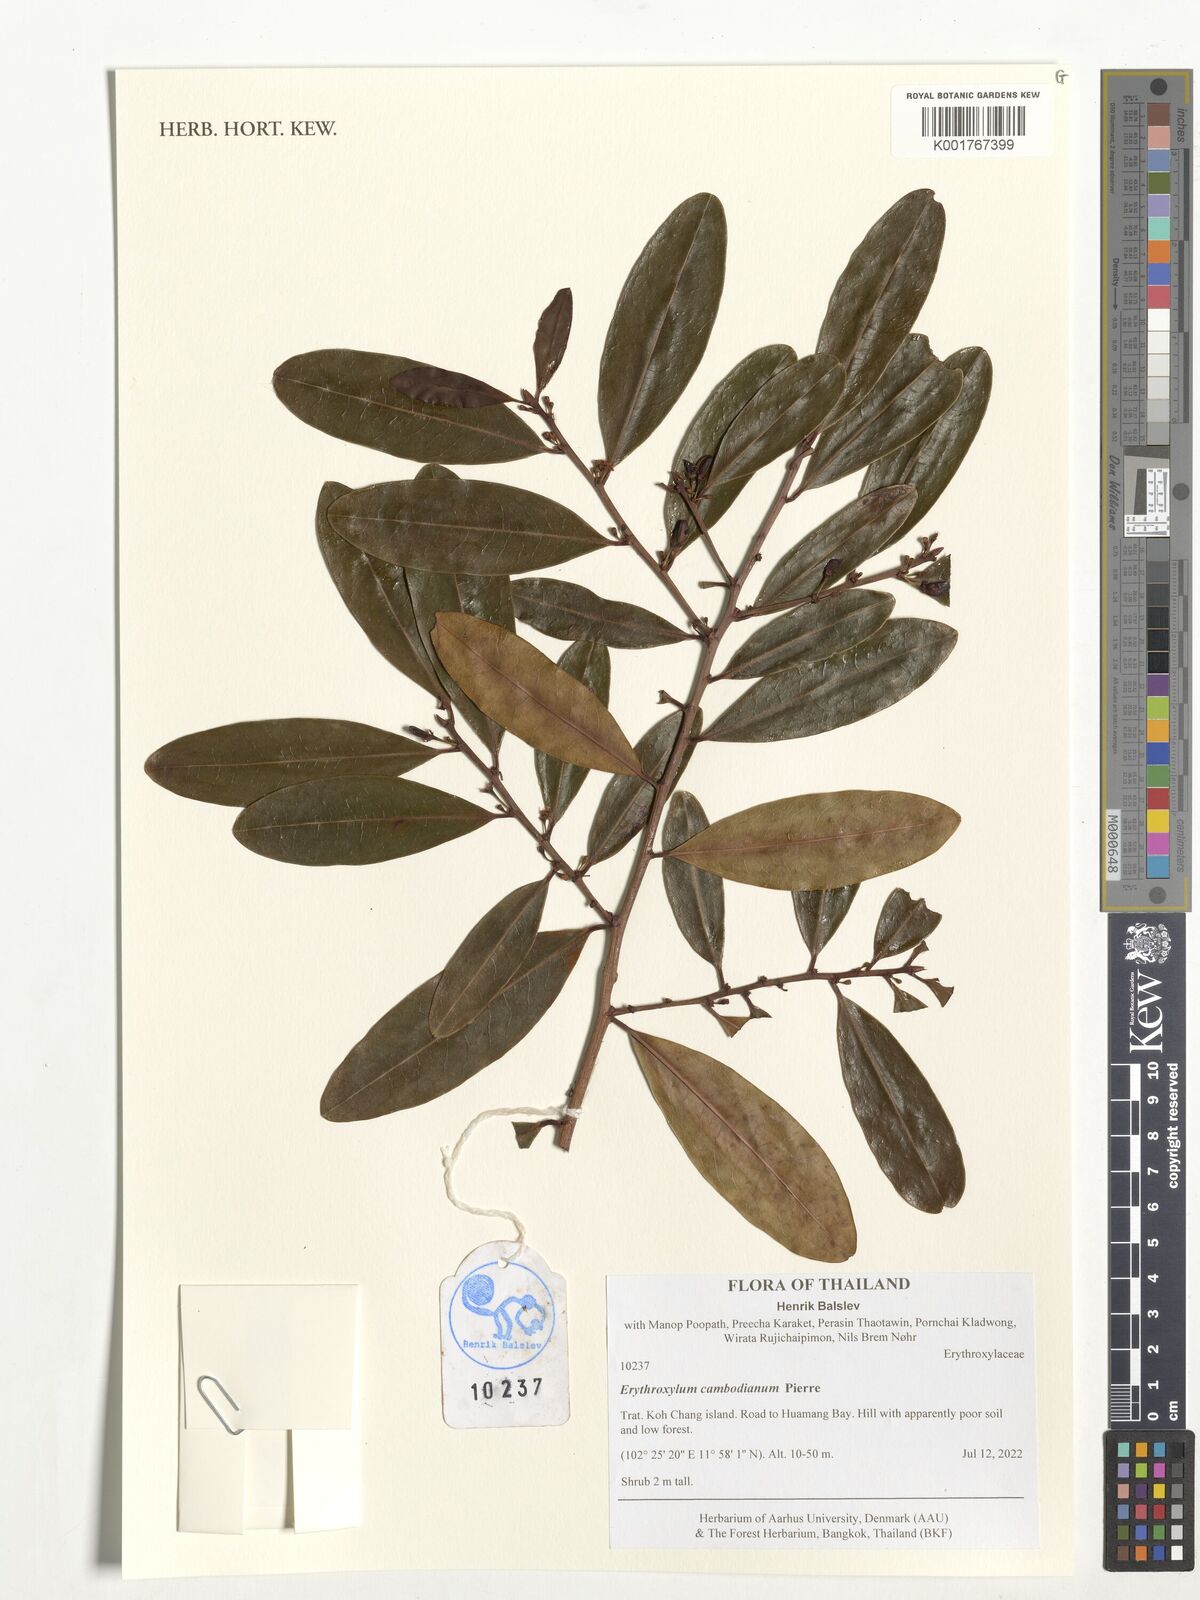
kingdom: Plantae
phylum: Tracheophyta
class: Magnoliopsida
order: Malpighiales
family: Erythroxylaceae
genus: Erythroxylum
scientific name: Erythroxylum cambodianum
